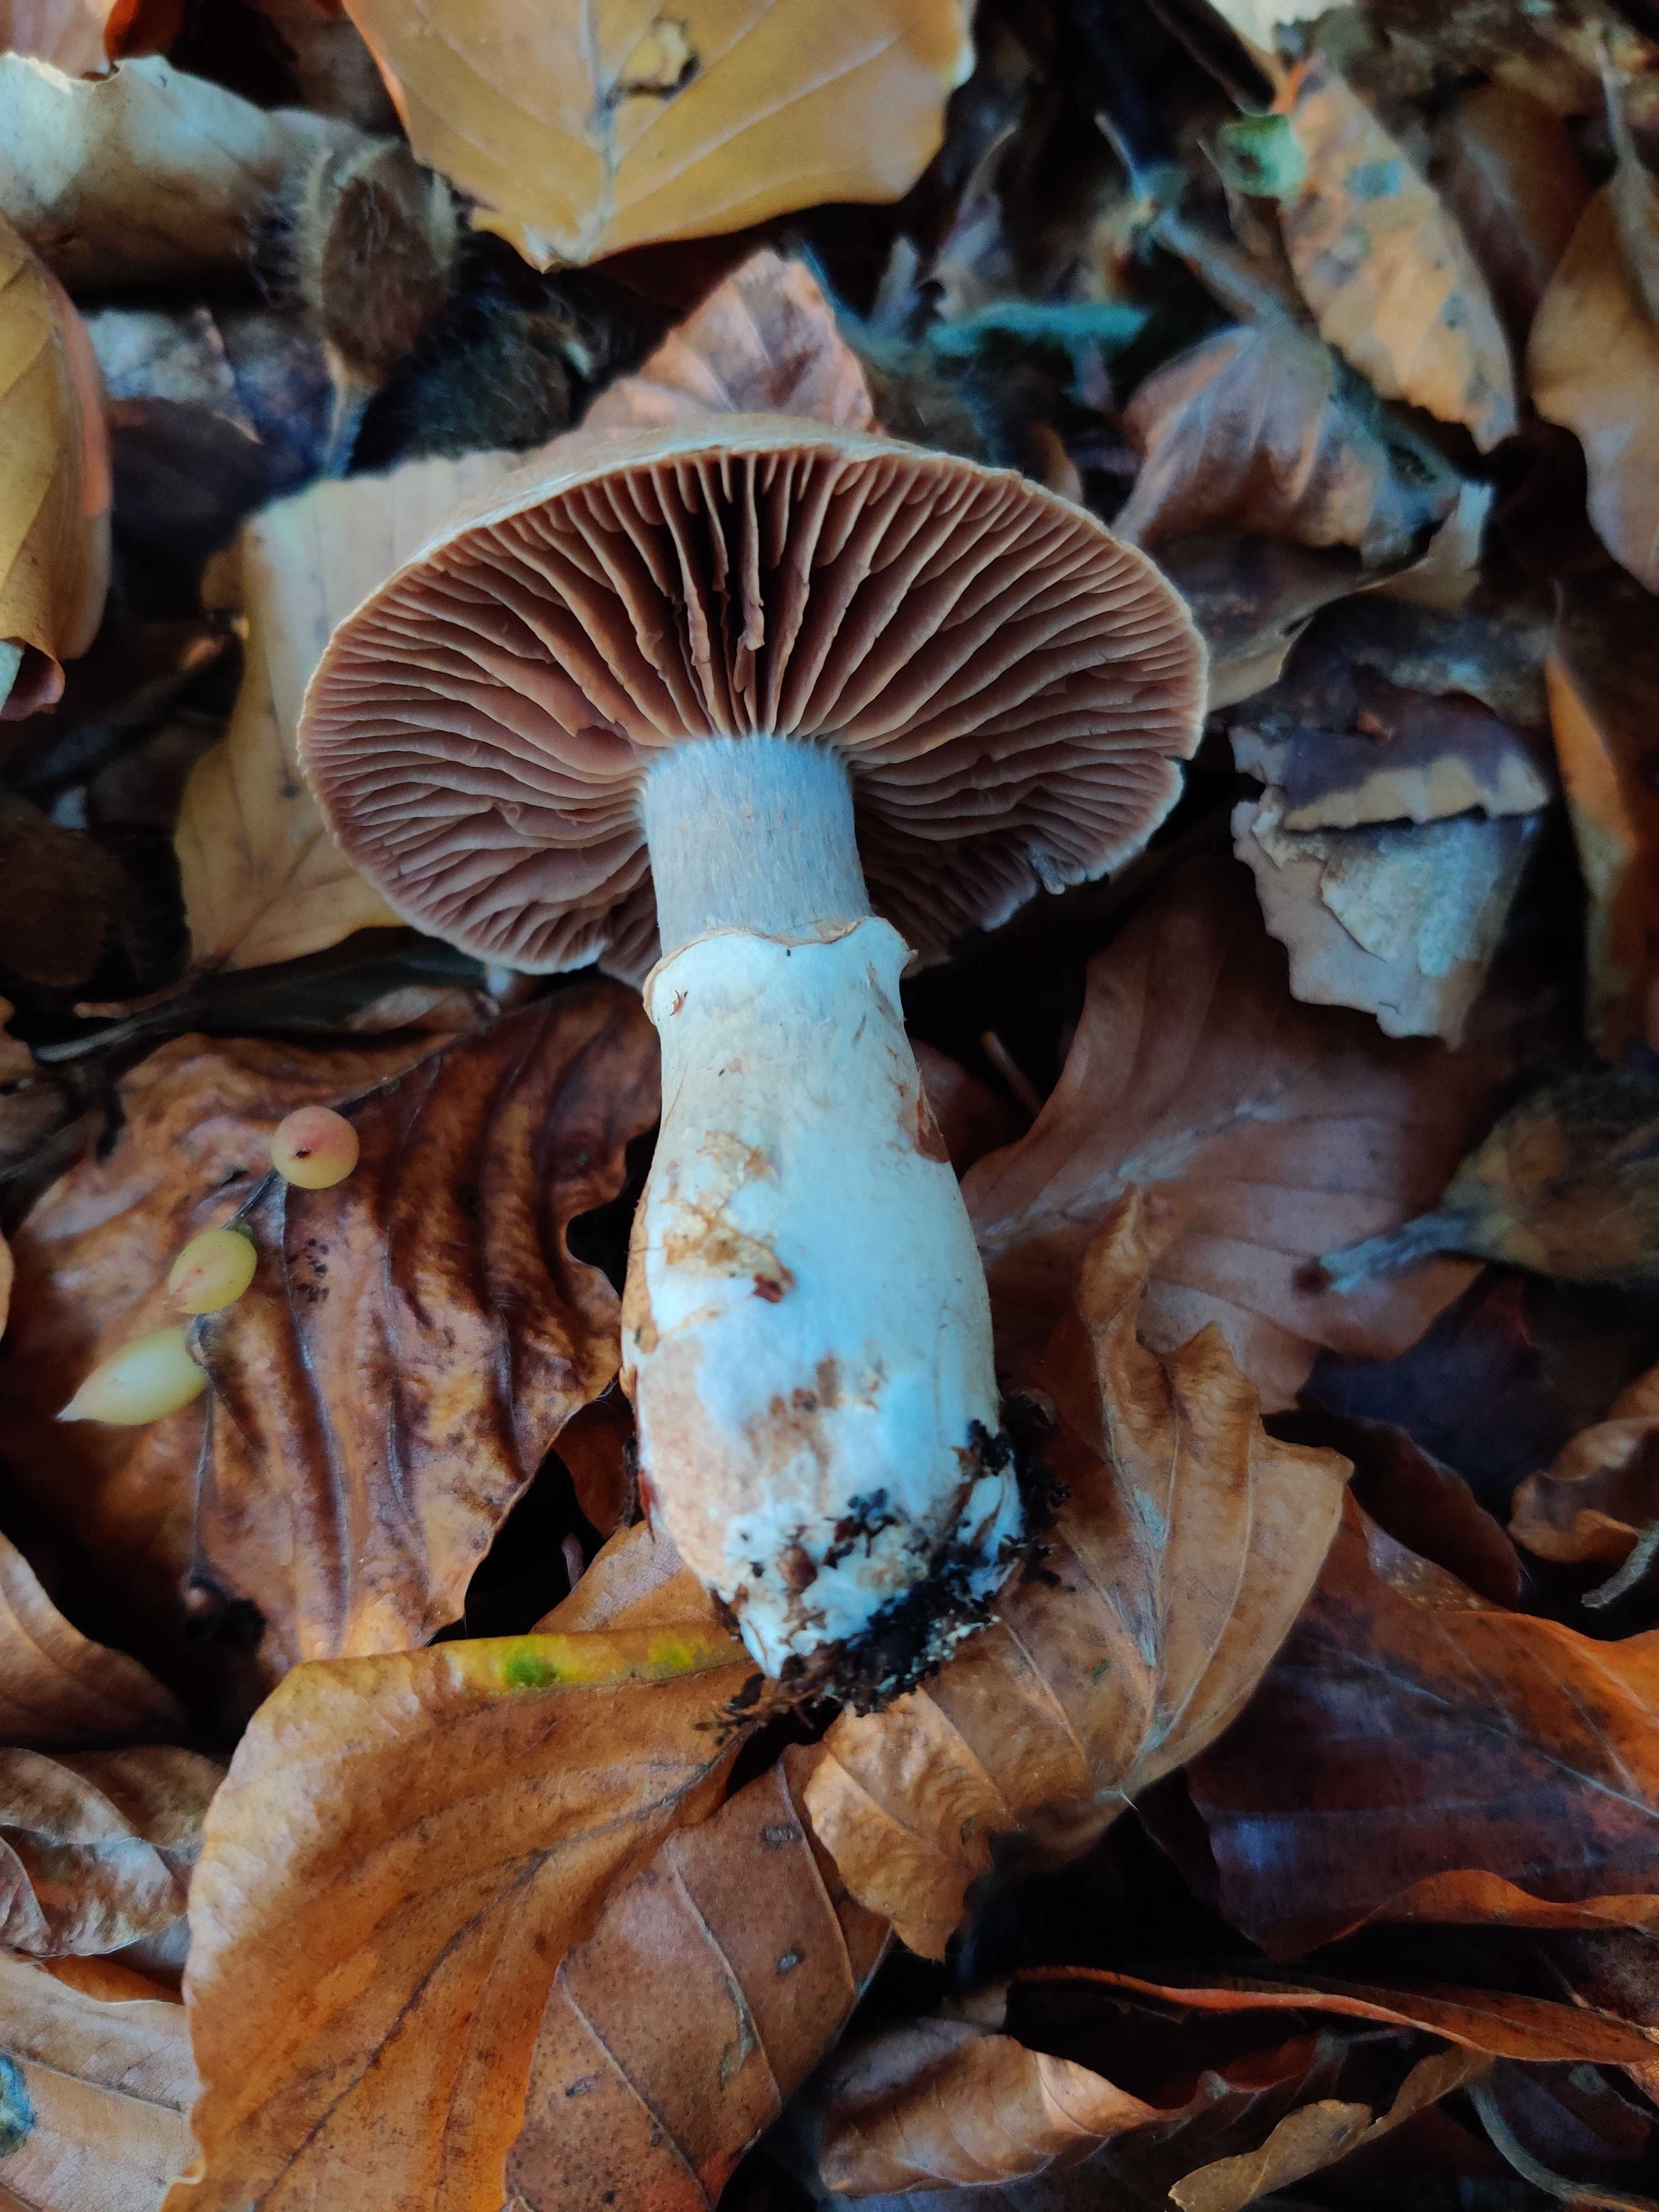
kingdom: Fungi
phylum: Basidiomycota
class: Agaricomycetes
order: Agaricales
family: Cortinariaceae
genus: Cortinarius
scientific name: Cortinarius torvus
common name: champignonagtig slørhat
